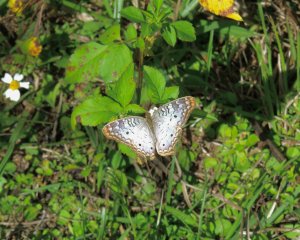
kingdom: Animalia
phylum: Arthropoda
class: Insecta
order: Lepidoptera
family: Nymphalidae
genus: Anartia
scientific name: Anartia jatrophae
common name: White Peacock
